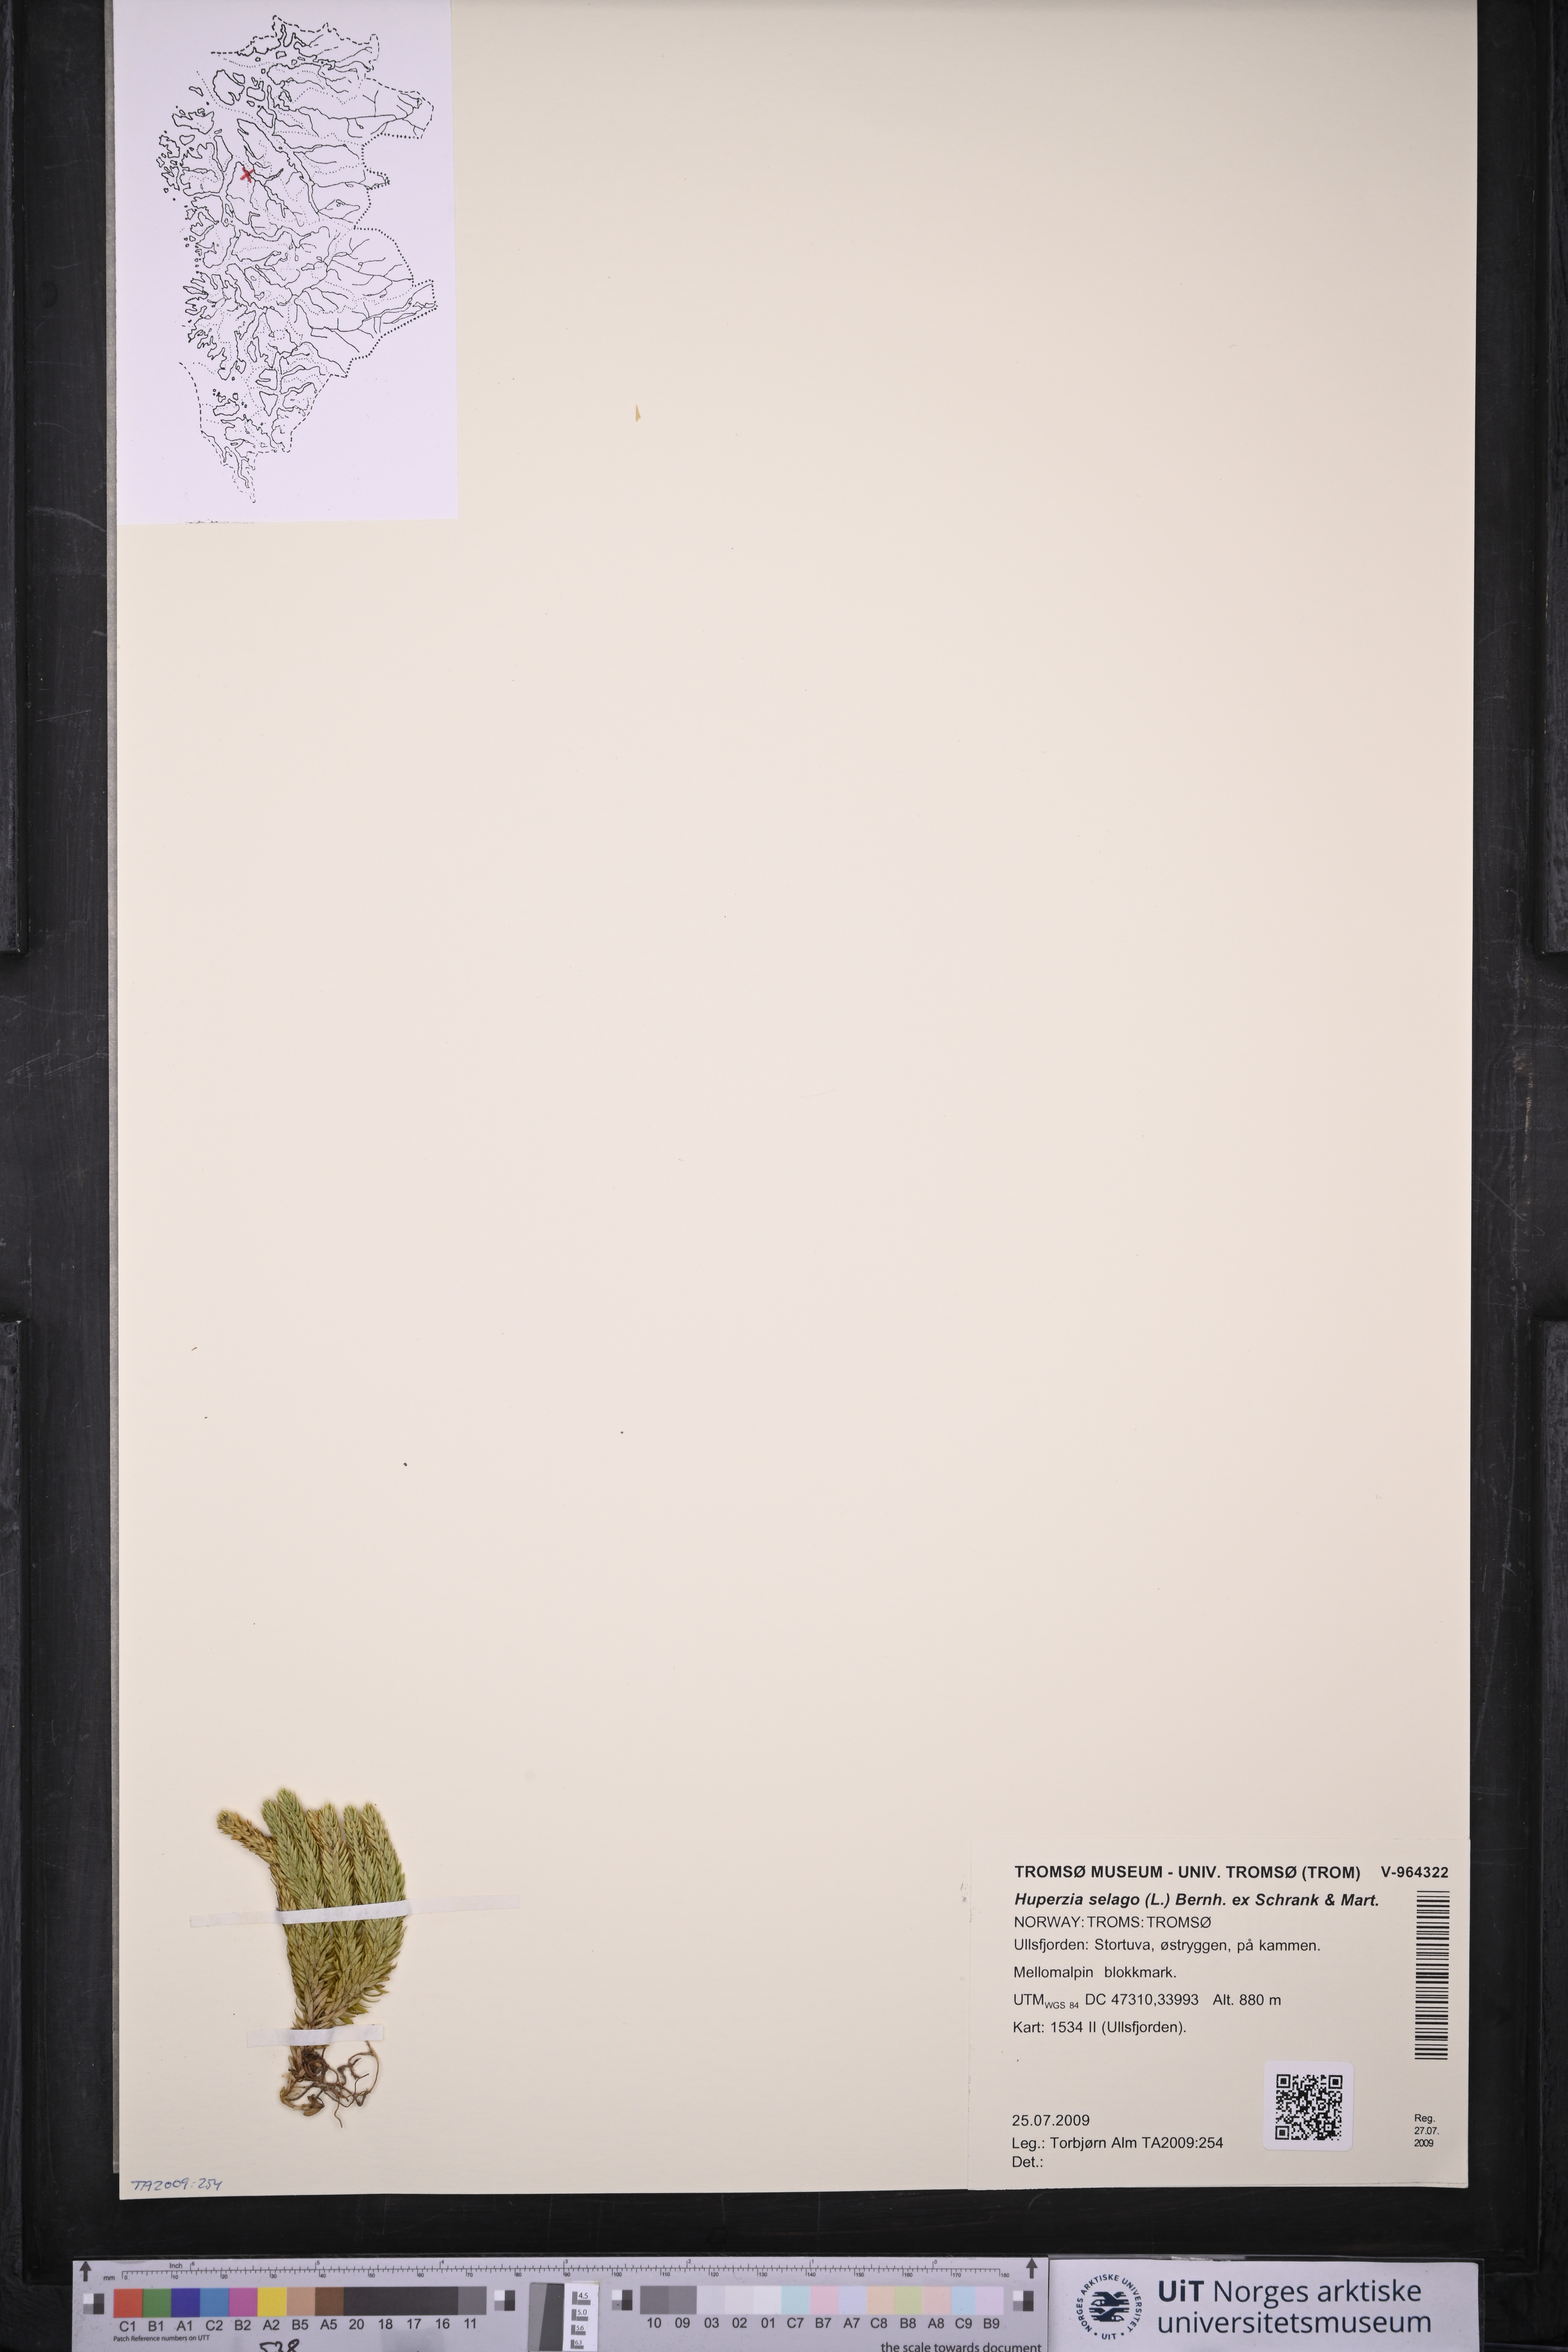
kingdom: Plantae
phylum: Tracheophyta
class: Lycopodiopsida
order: Lycopodiales
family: Lycopodiaceae
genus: Huperzia
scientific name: Huperzia selago
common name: Northern firmoss
